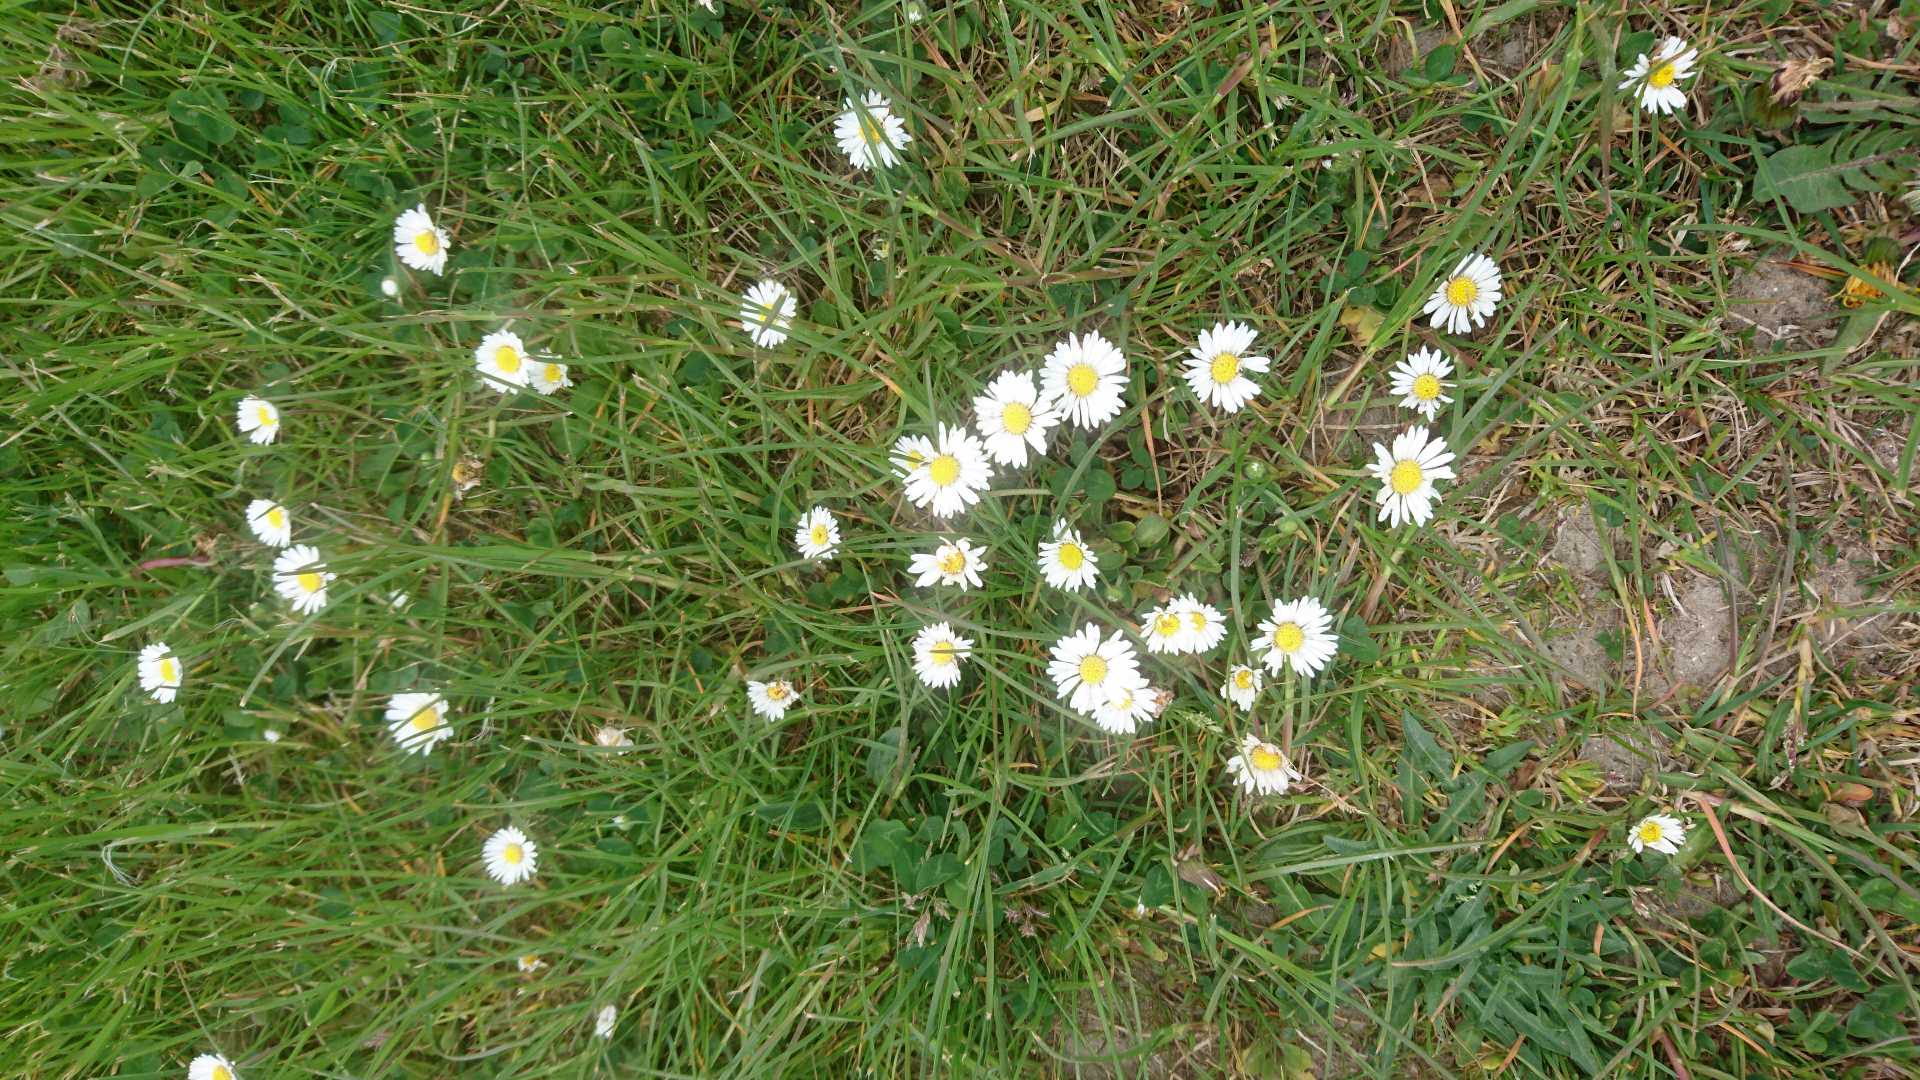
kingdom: Plantae
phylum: Tracheophyta
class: Magnoliopsida
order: Asterales
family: Asteraceae
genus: Bellis
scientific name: Bellis perennis
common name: Tusindfryd
